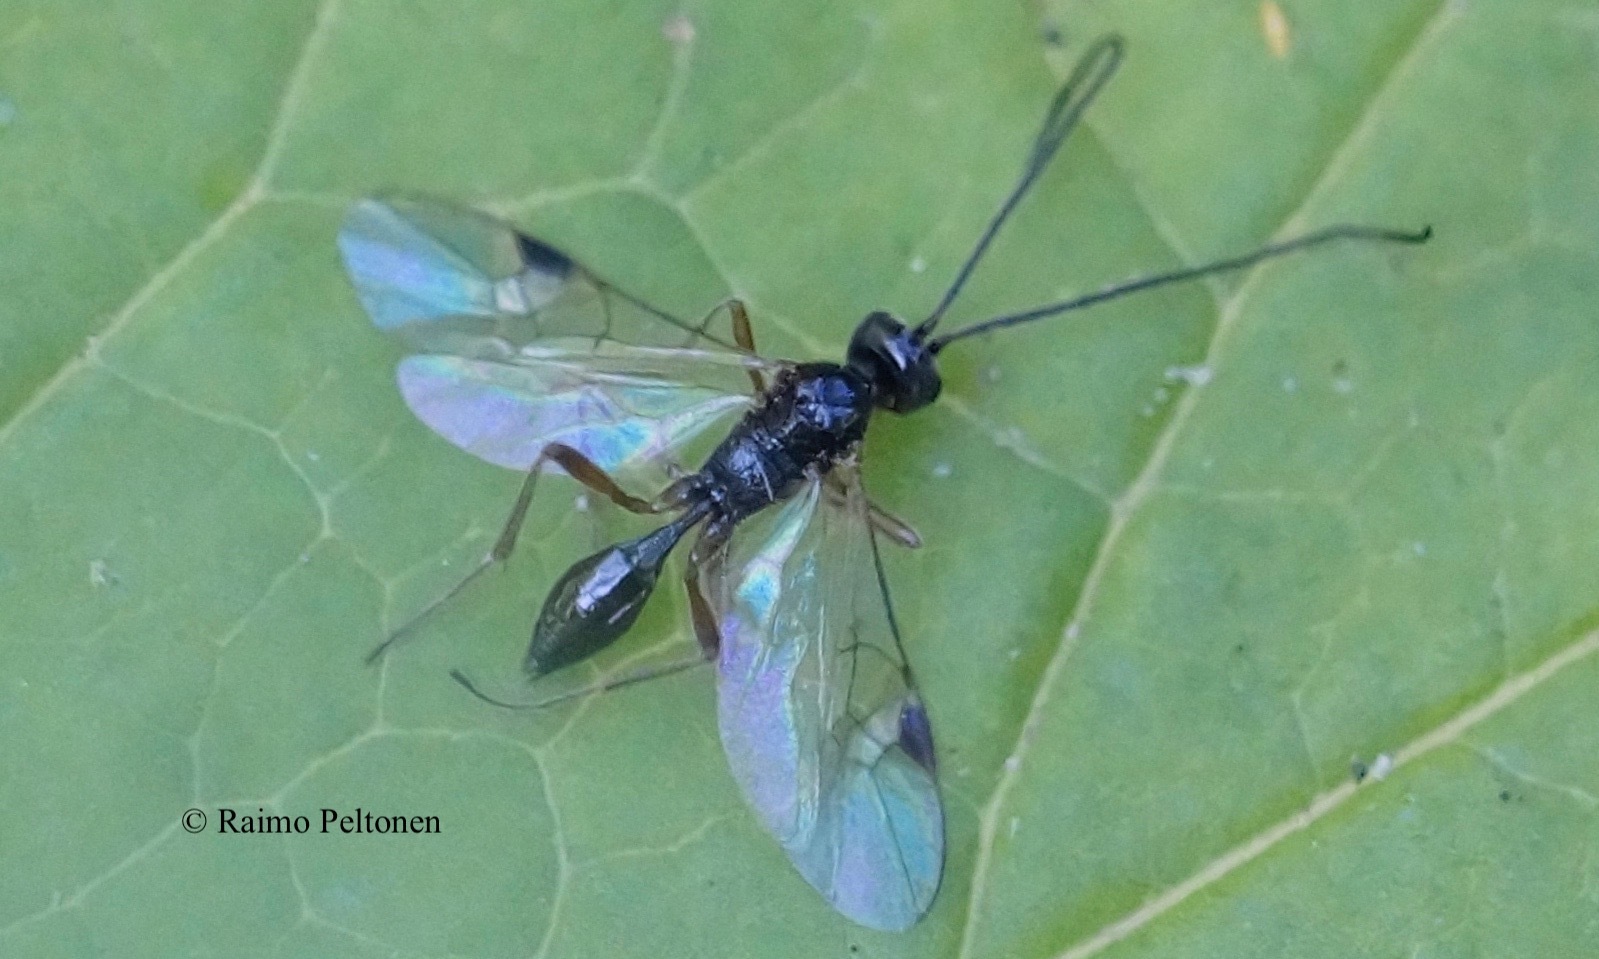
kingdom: Animalia
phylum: Arthropoda
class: Insecta
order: Hymenoptera
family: Braconidae
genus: Meteorus
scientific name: Meteorus
